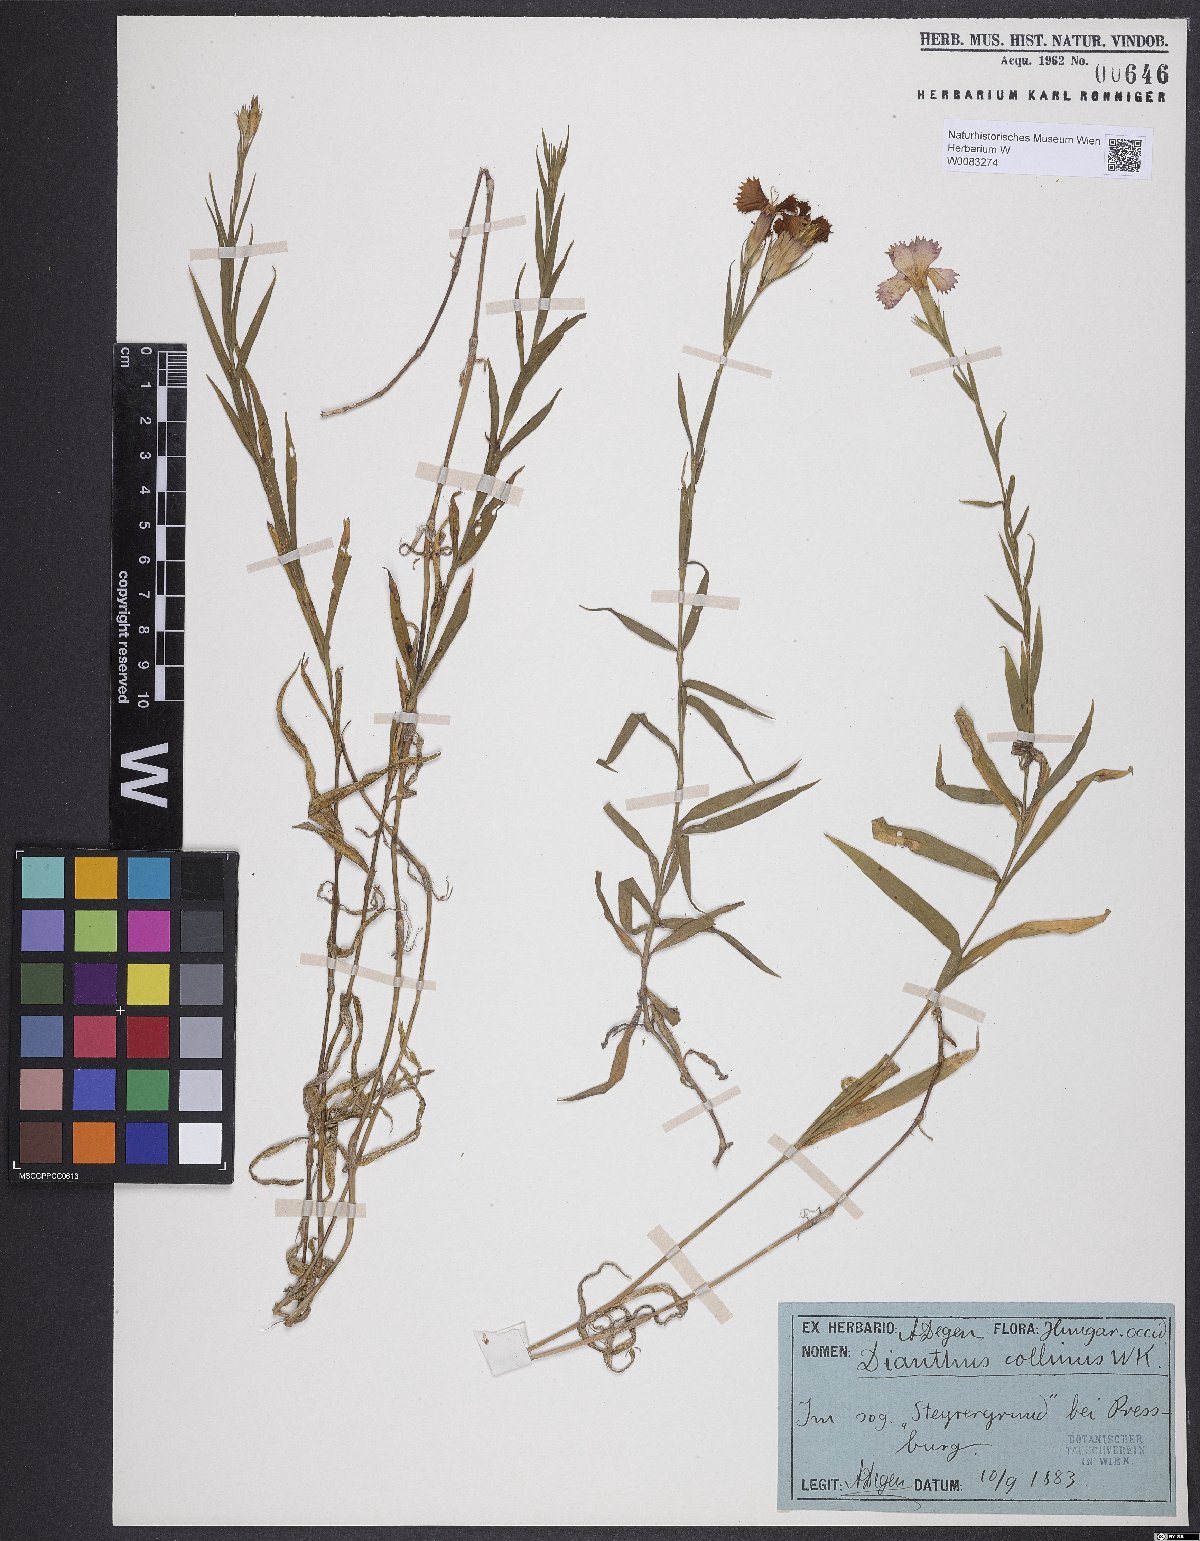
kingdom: Plantae
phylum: Tracheophyta
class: Magnoliopsida
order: Caryophyllales
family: Caryophyllaceae
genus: Dianthus
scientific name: Dianthus collinus
